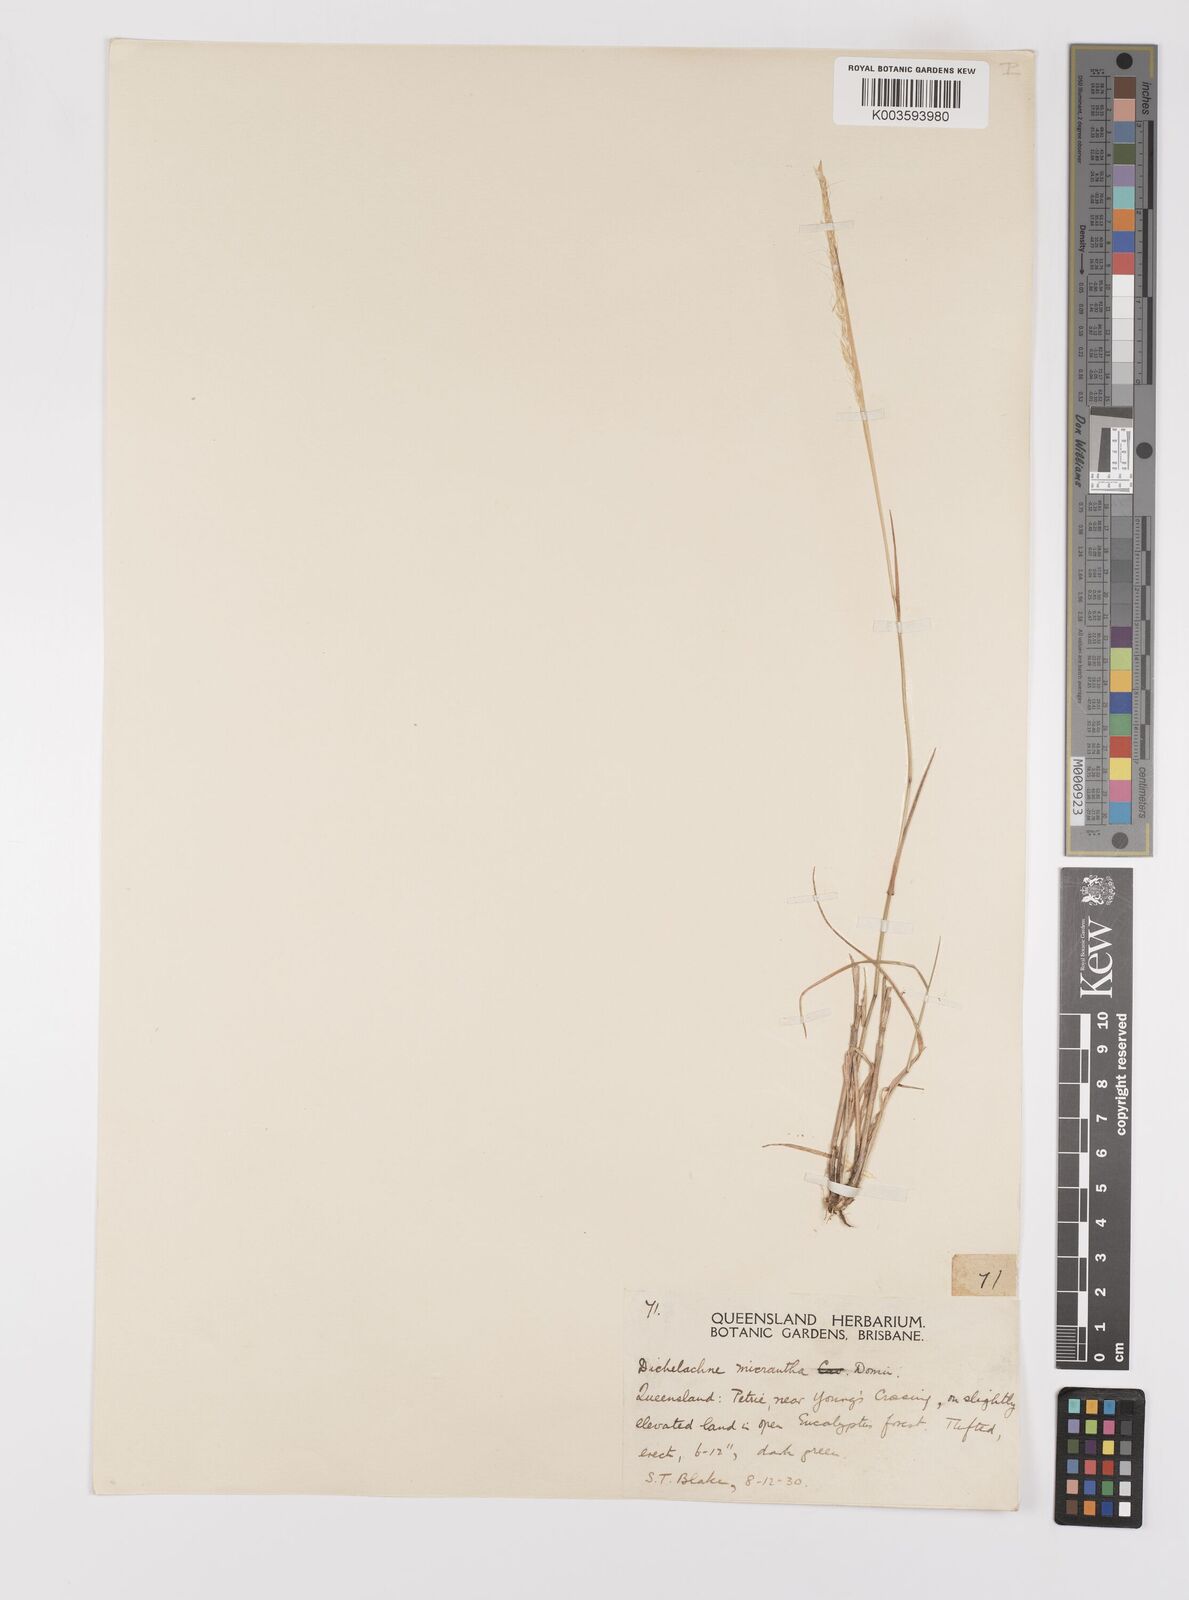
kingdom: Plantae
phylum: Tracheophyta
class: Liliopsida
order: Poales
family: Poaceae
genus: Dichelachne
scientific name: Dichelachne micrantha
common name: Plumegrass
